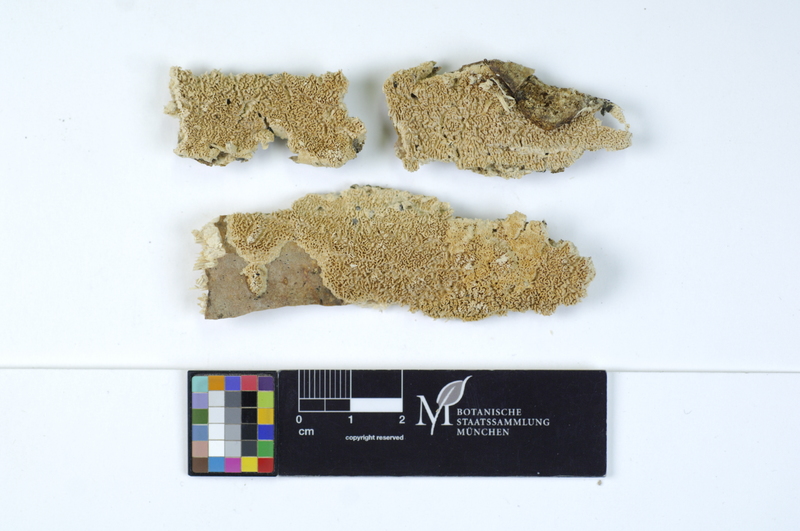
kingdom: Fungi
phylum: Basidiomycota
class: Agaricomycetes
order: Hymenochaetales
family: Schizoporaceae
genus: Schizopora
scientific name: Schizopora paradoxa
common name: Split porecrust
